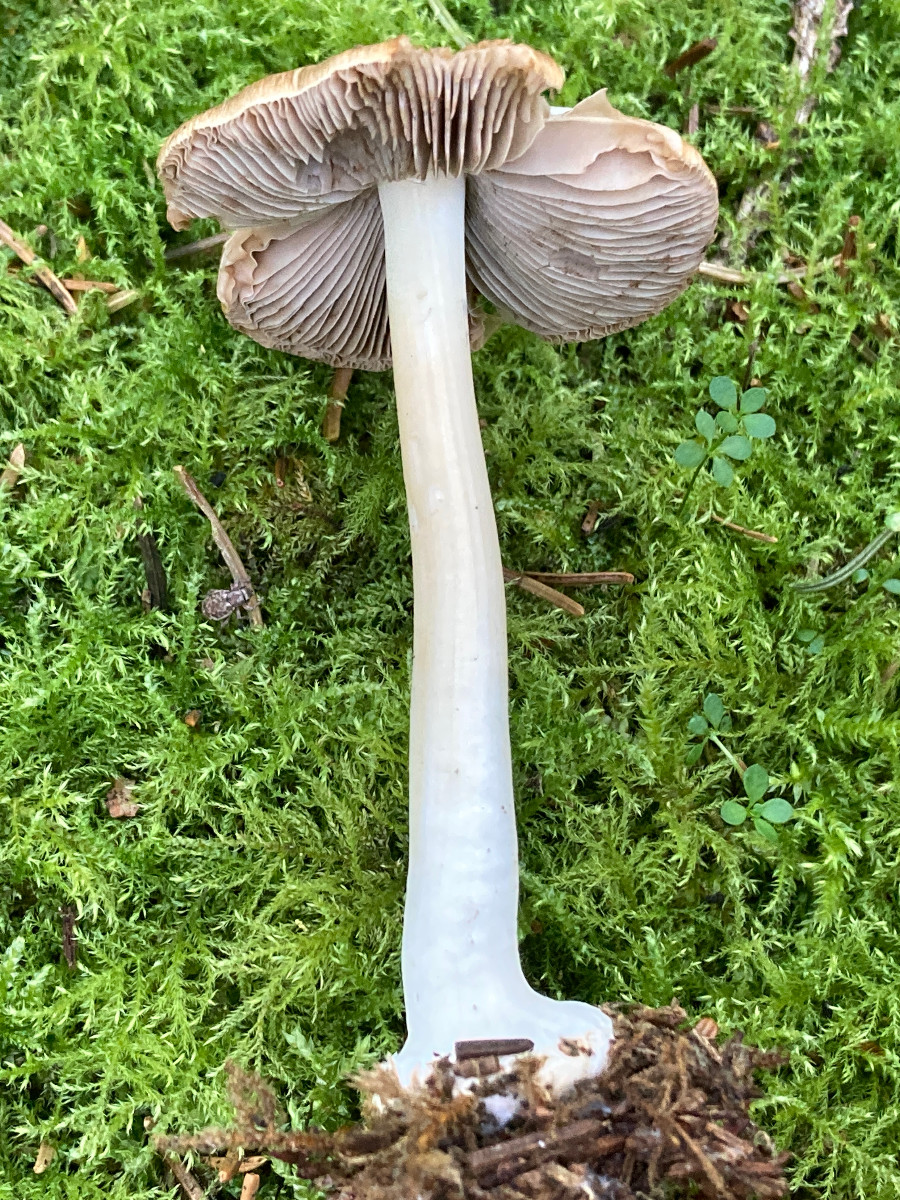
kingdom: Fungi
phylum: Basidiomycota
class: Agaricomycetes
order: Agaricales
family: Inocybaceae
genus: Inocybe
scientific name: Inocybe
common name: trævlhat
